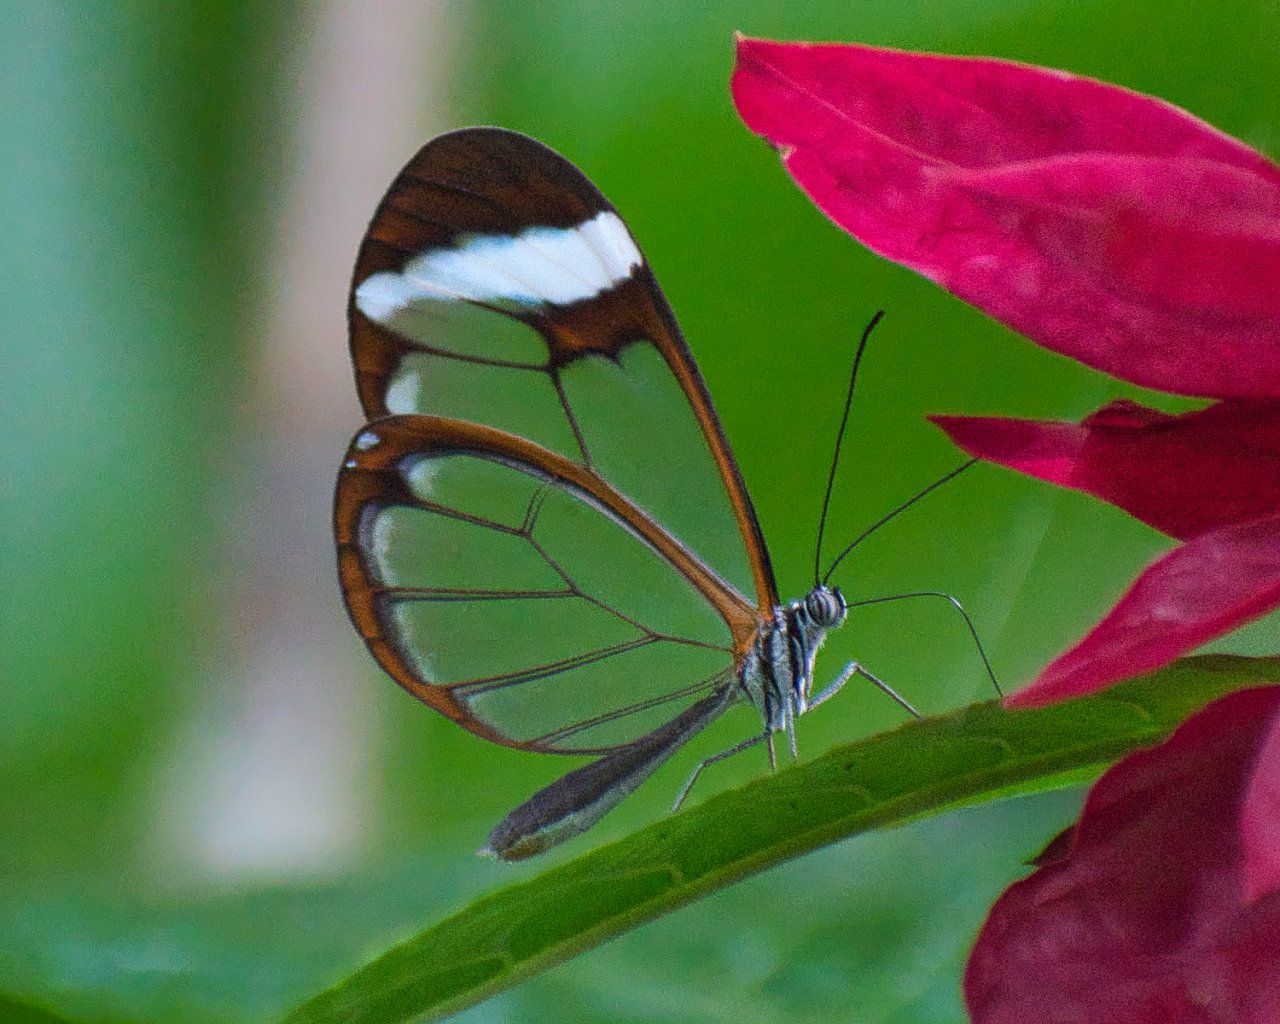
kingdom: Animalia
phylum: Arthropoda
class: Insecta
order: Lepidoptera
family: Nymphalidae
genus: Greta
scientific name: Greta morgane
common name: Thick-tipped Greta
